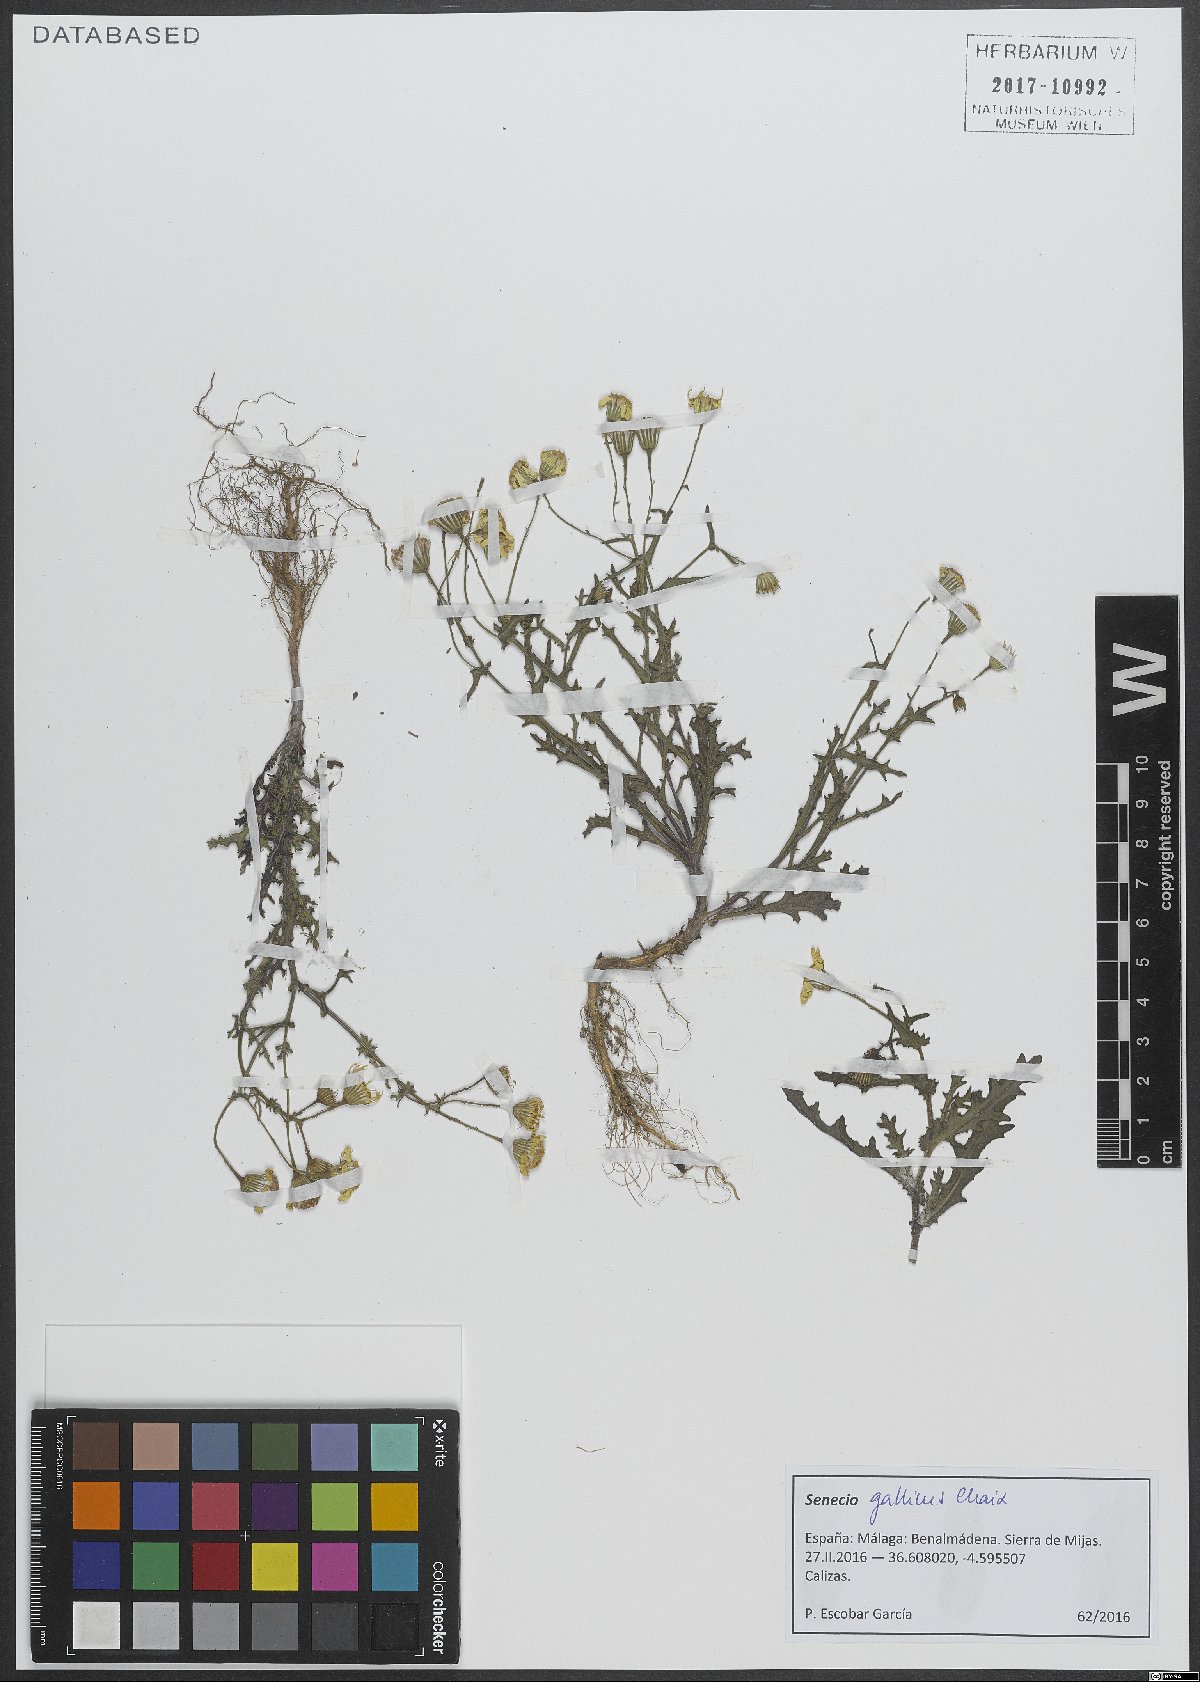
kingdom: Plantae
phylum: Tracheophyta
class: Magnoliopsida
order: Asterales
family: Asteraceae
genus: Senecio
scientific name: Senecio gallicus
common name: French groundsel
